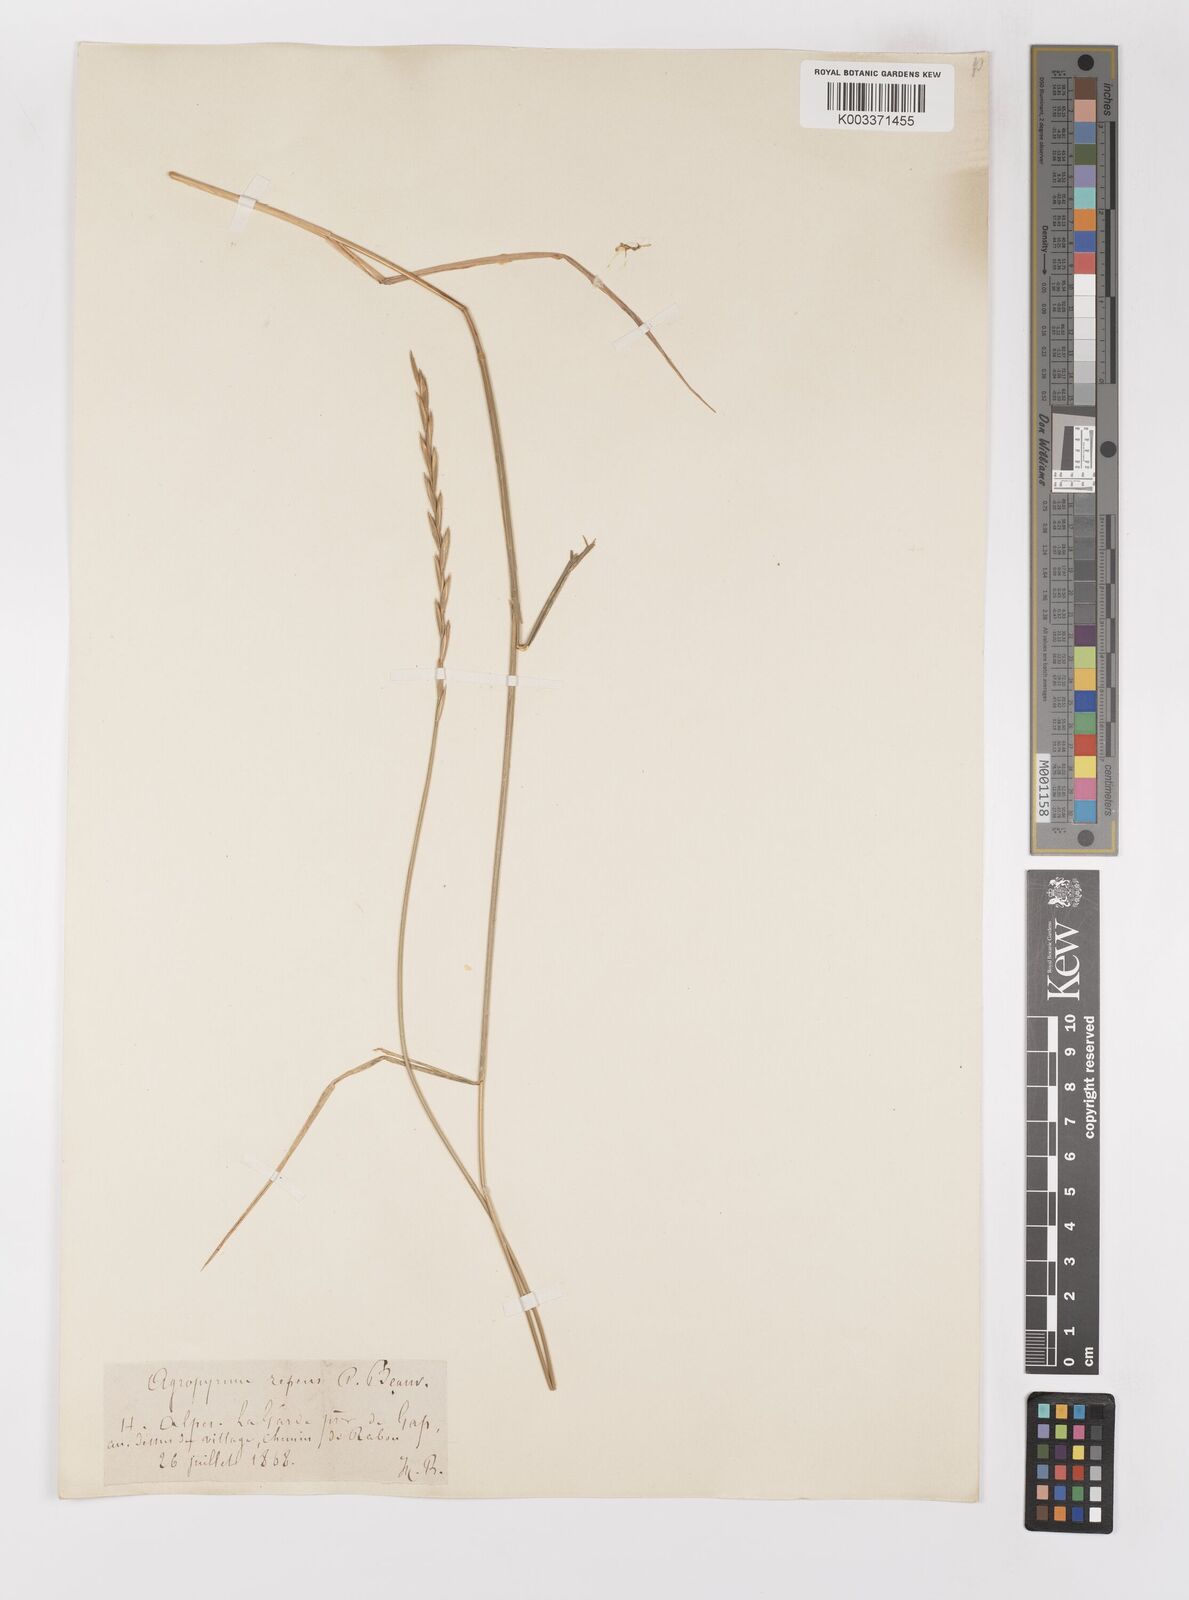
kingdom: Plantae
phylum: Tracheophyta
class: Liliopsida
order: Poales
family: Poaceae
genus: Elymus
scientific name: Elymus repens
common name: Quackgrass
